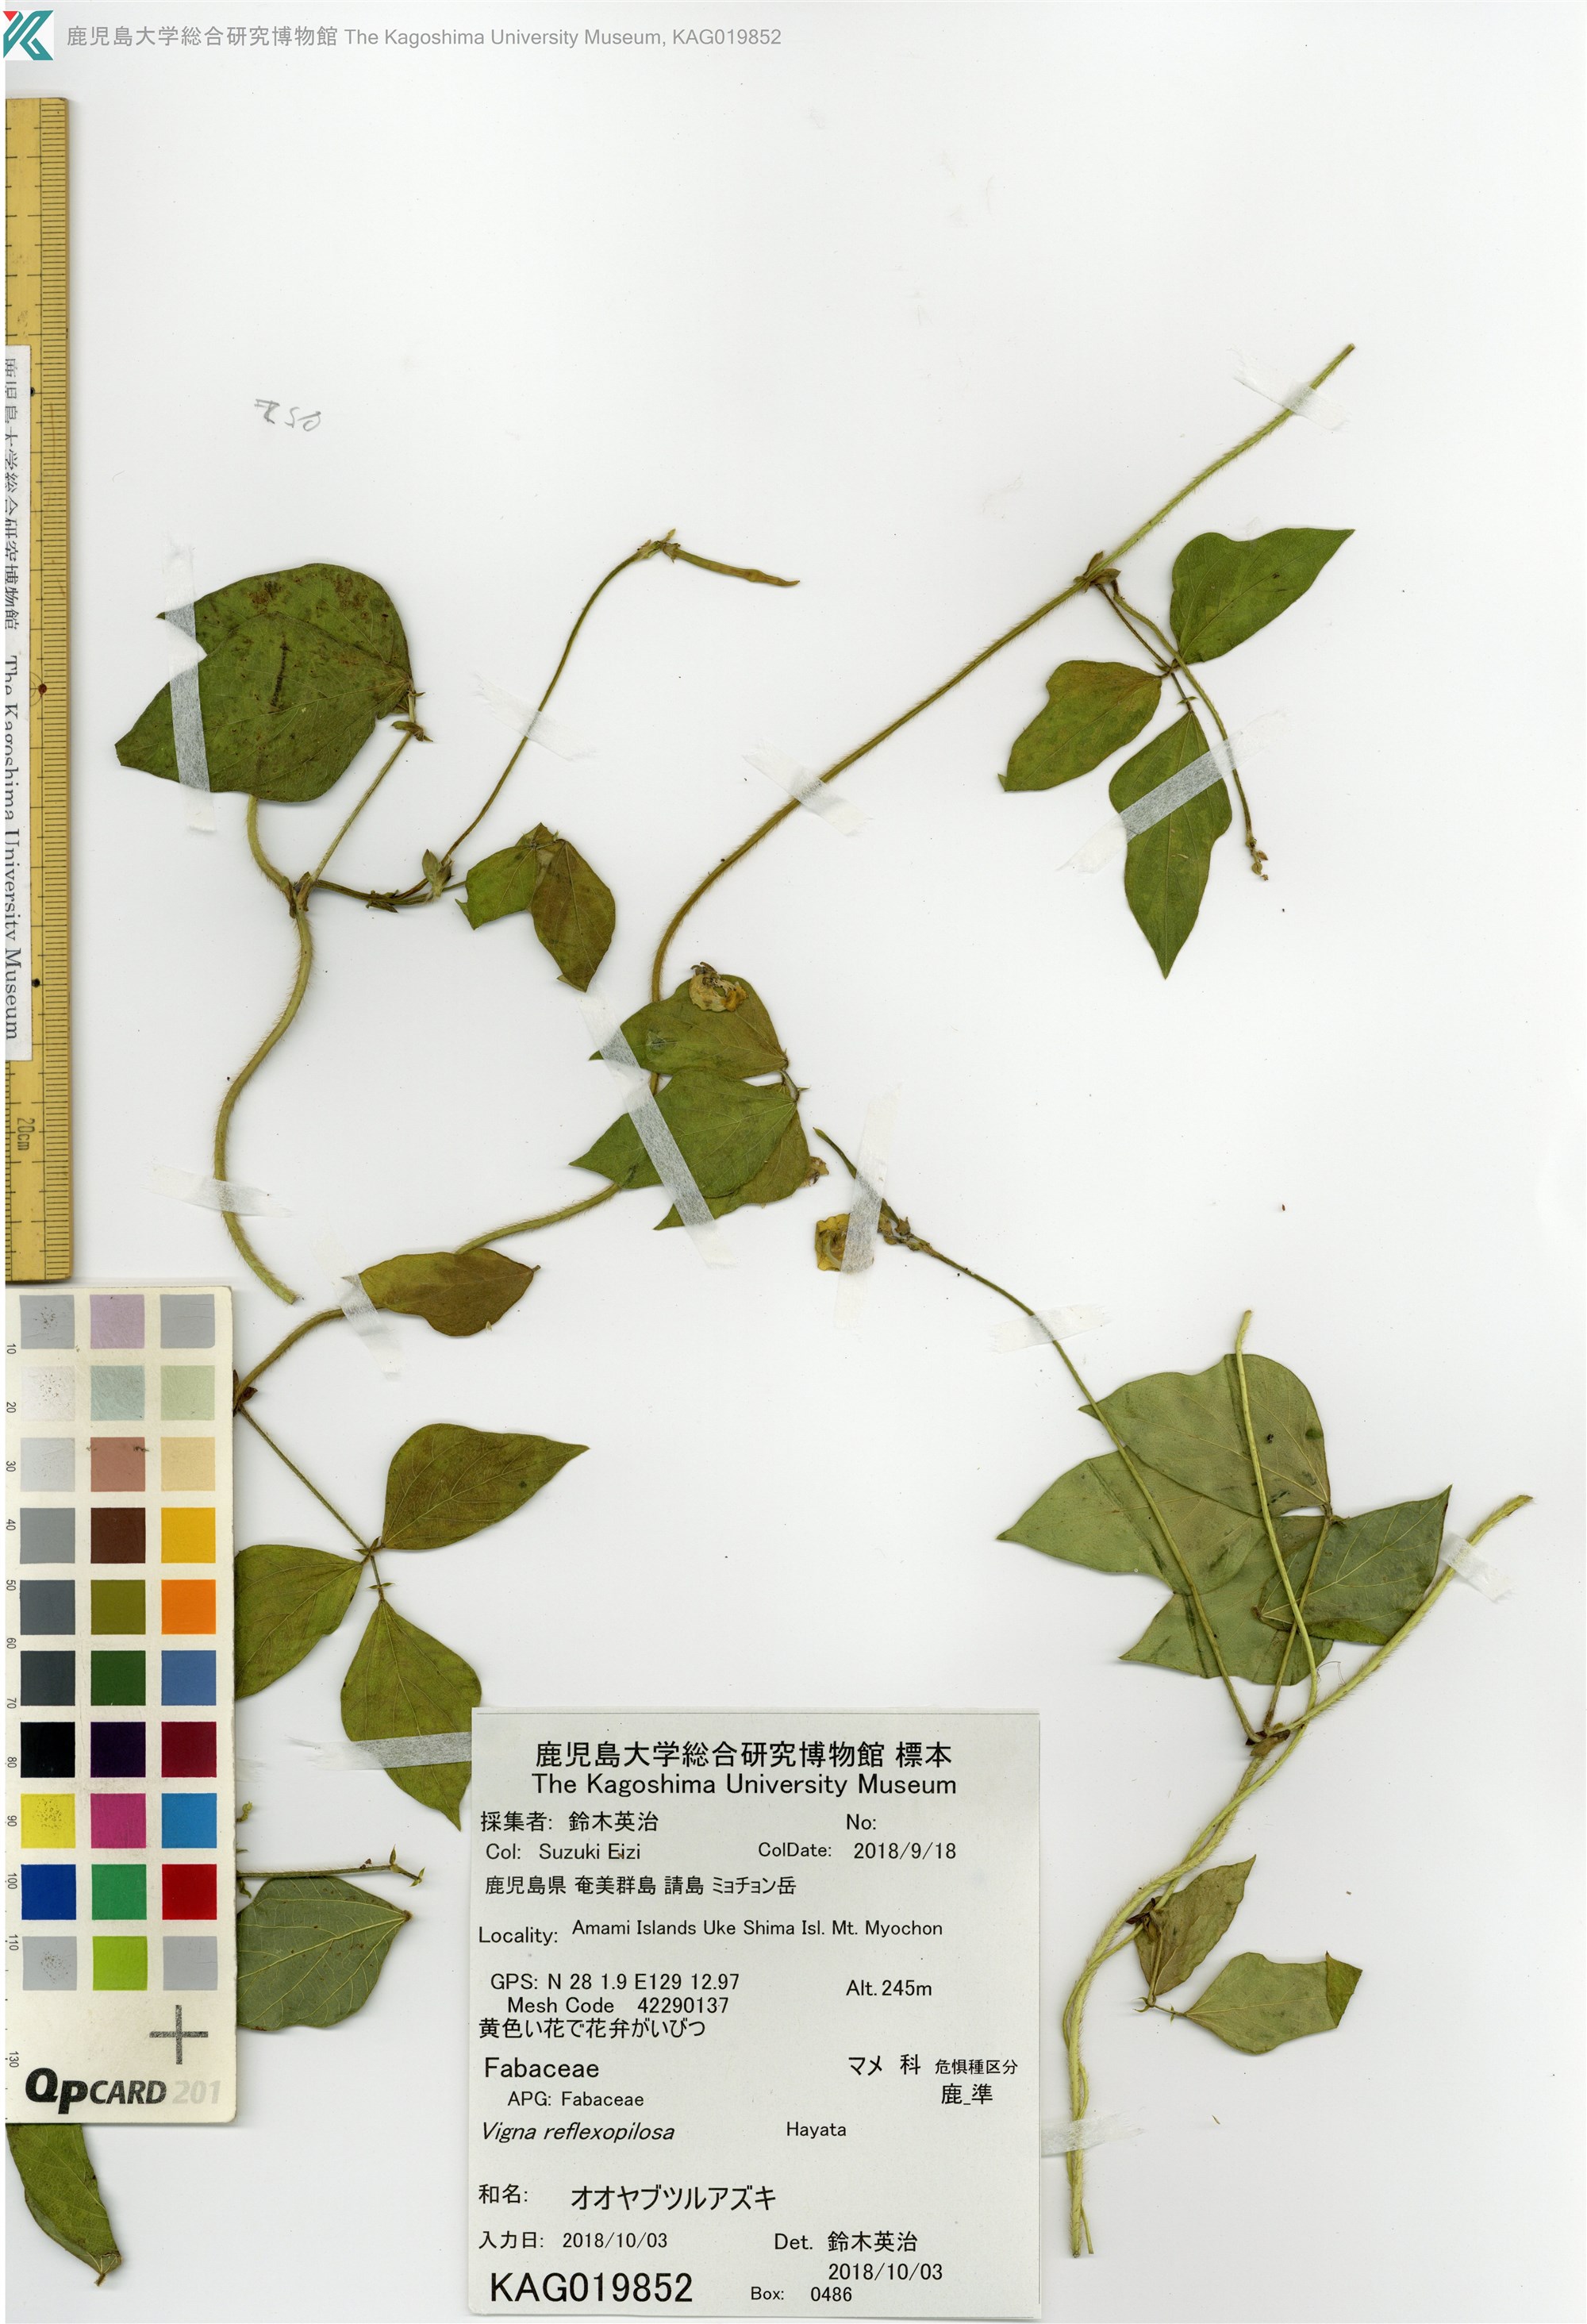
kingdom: Plantae
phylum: Tracheophyta
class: Magnoliopsida
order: Fabales
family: Fabaceae
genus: Vigna
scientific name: Vigna reflexopilosa
